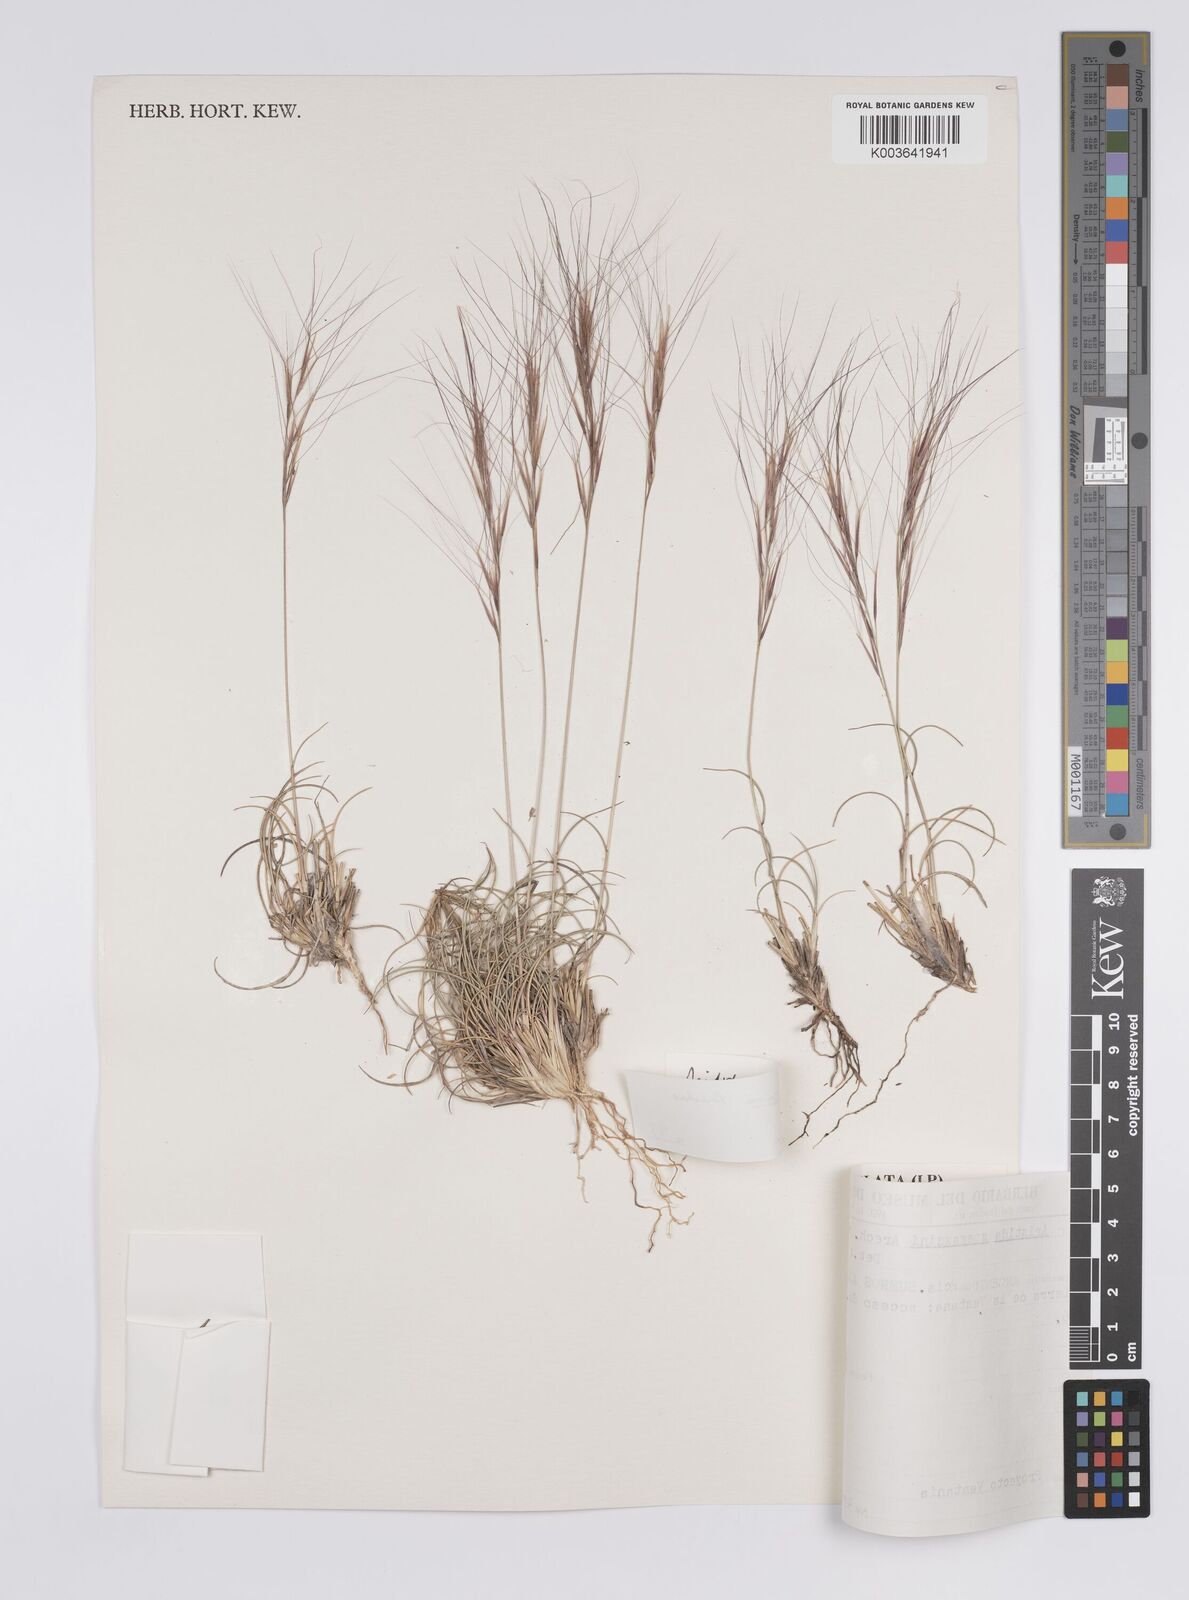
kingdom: Plantae
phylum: Tracheophyta
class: Liliopsida
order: Poales
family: Poaceae
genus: Aristida
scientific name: Aristida spegazzinii
